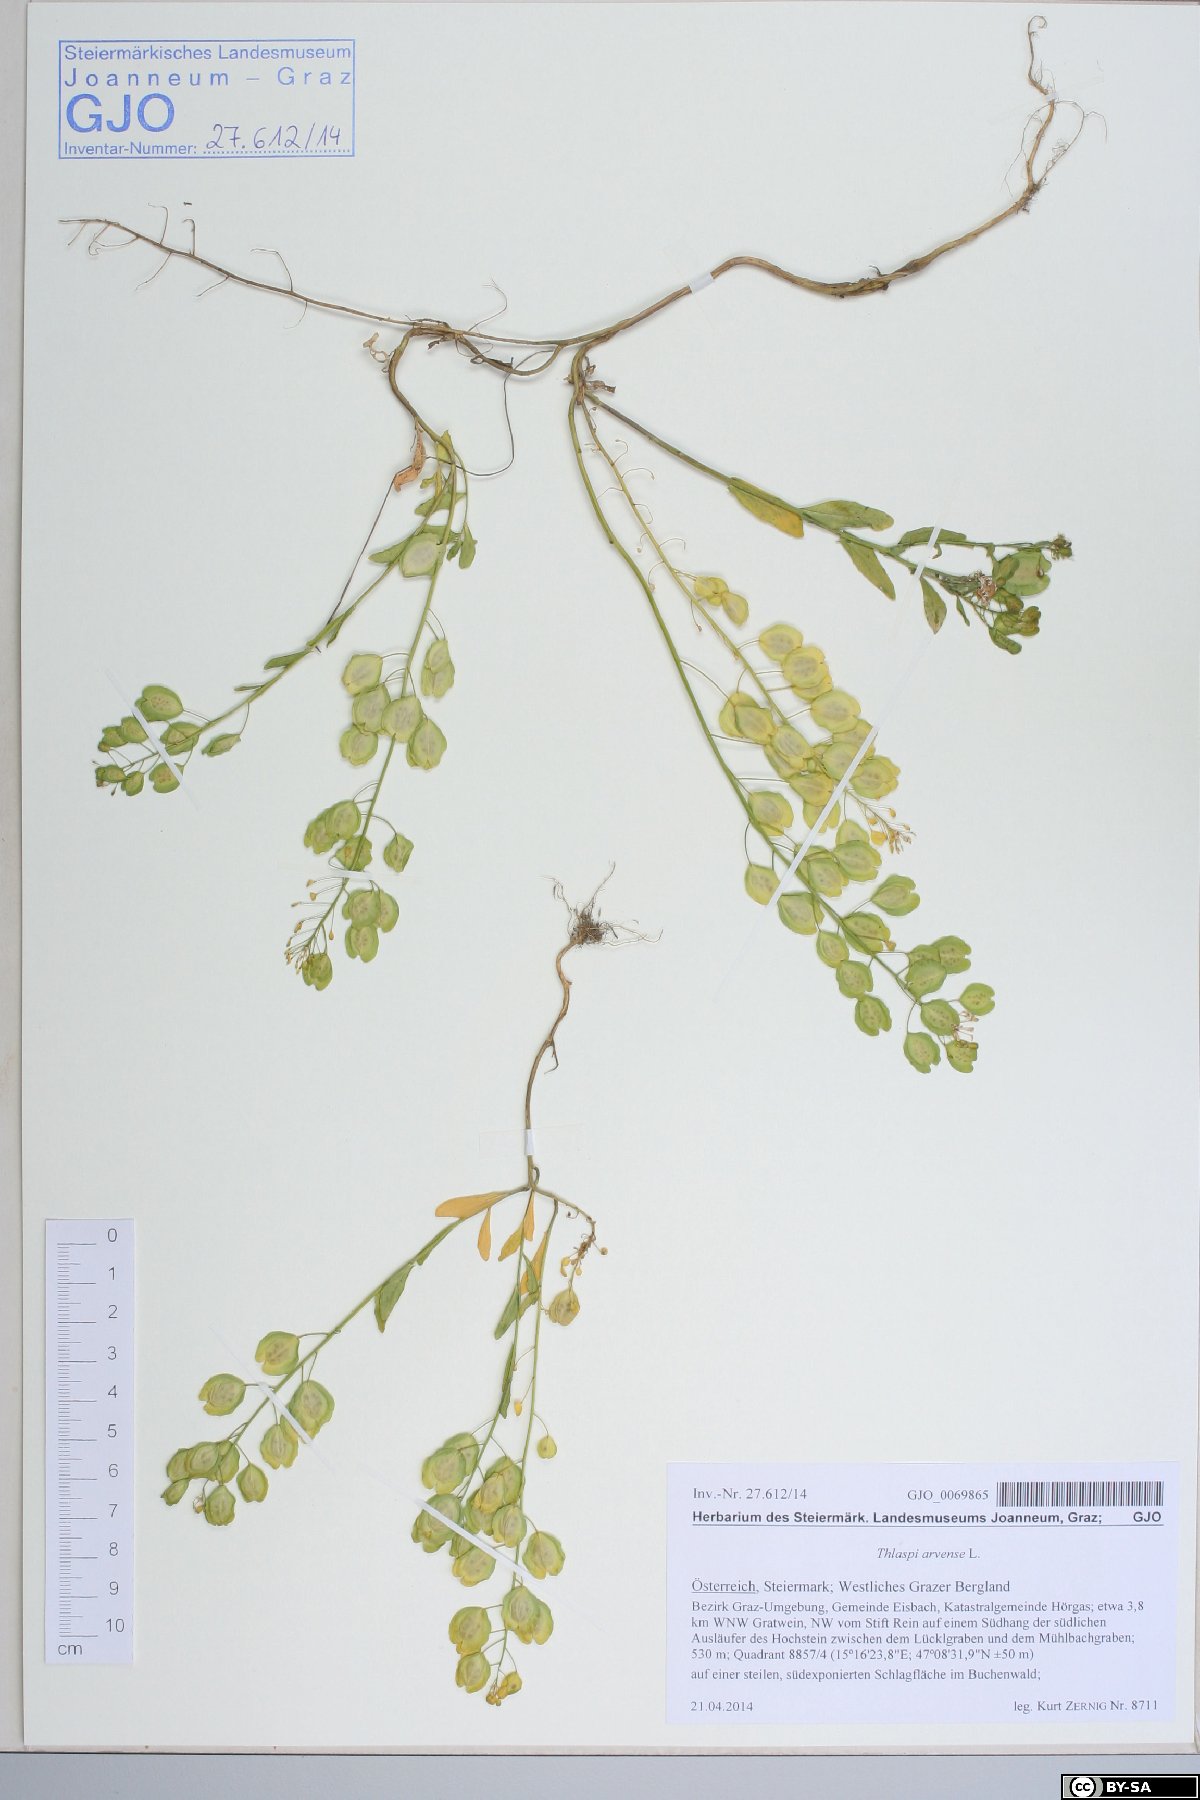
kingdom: Plantae
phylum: Tracheophyta
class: Magnoliopsida
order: Brassicales
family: Brassicaceae
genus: Thlaspi
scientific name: Thlaspi arvense
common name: Field pennycress
